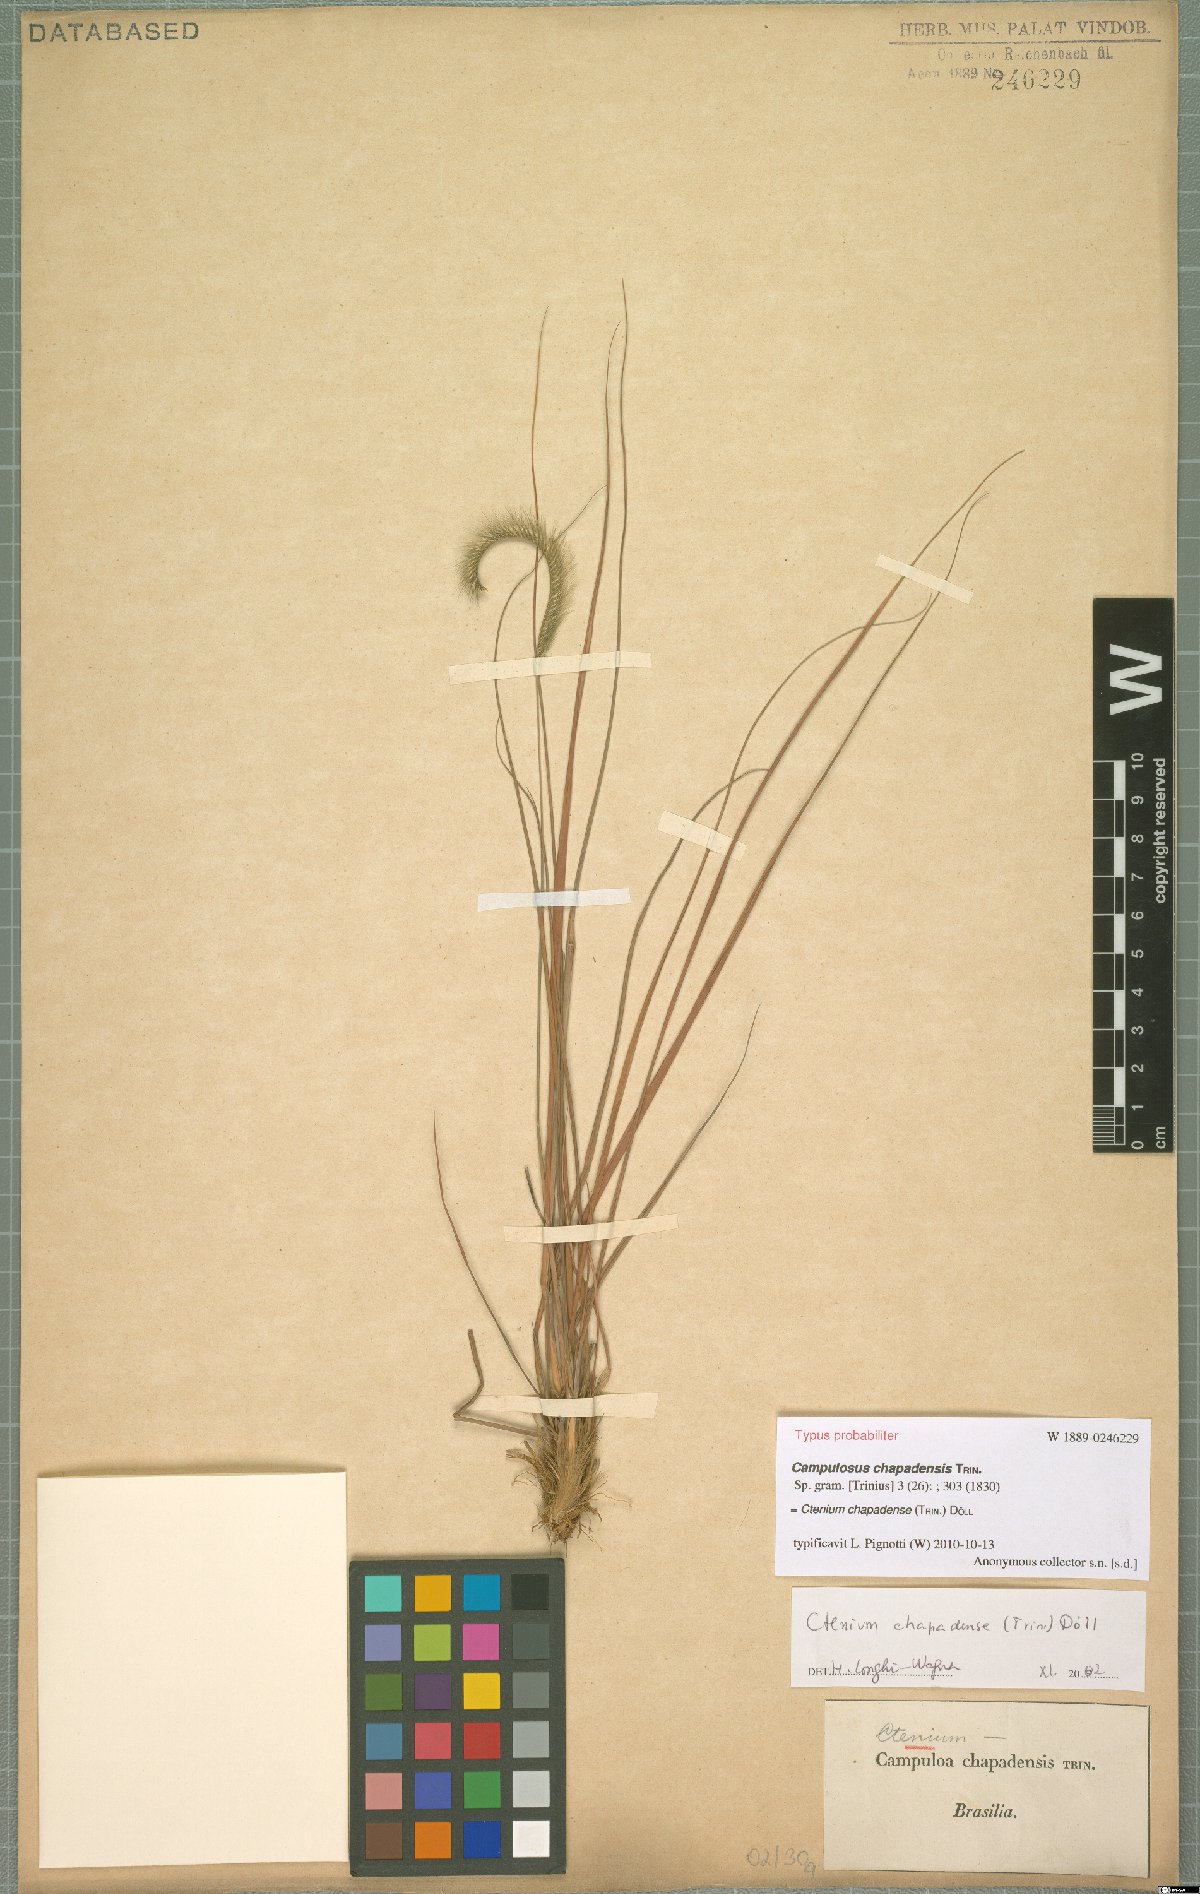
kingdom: Plantae
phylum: Tracheophyta
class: Liliopsida
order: Poales
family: Poaceae
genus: Ctenium
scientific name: Ctenium chapadense
